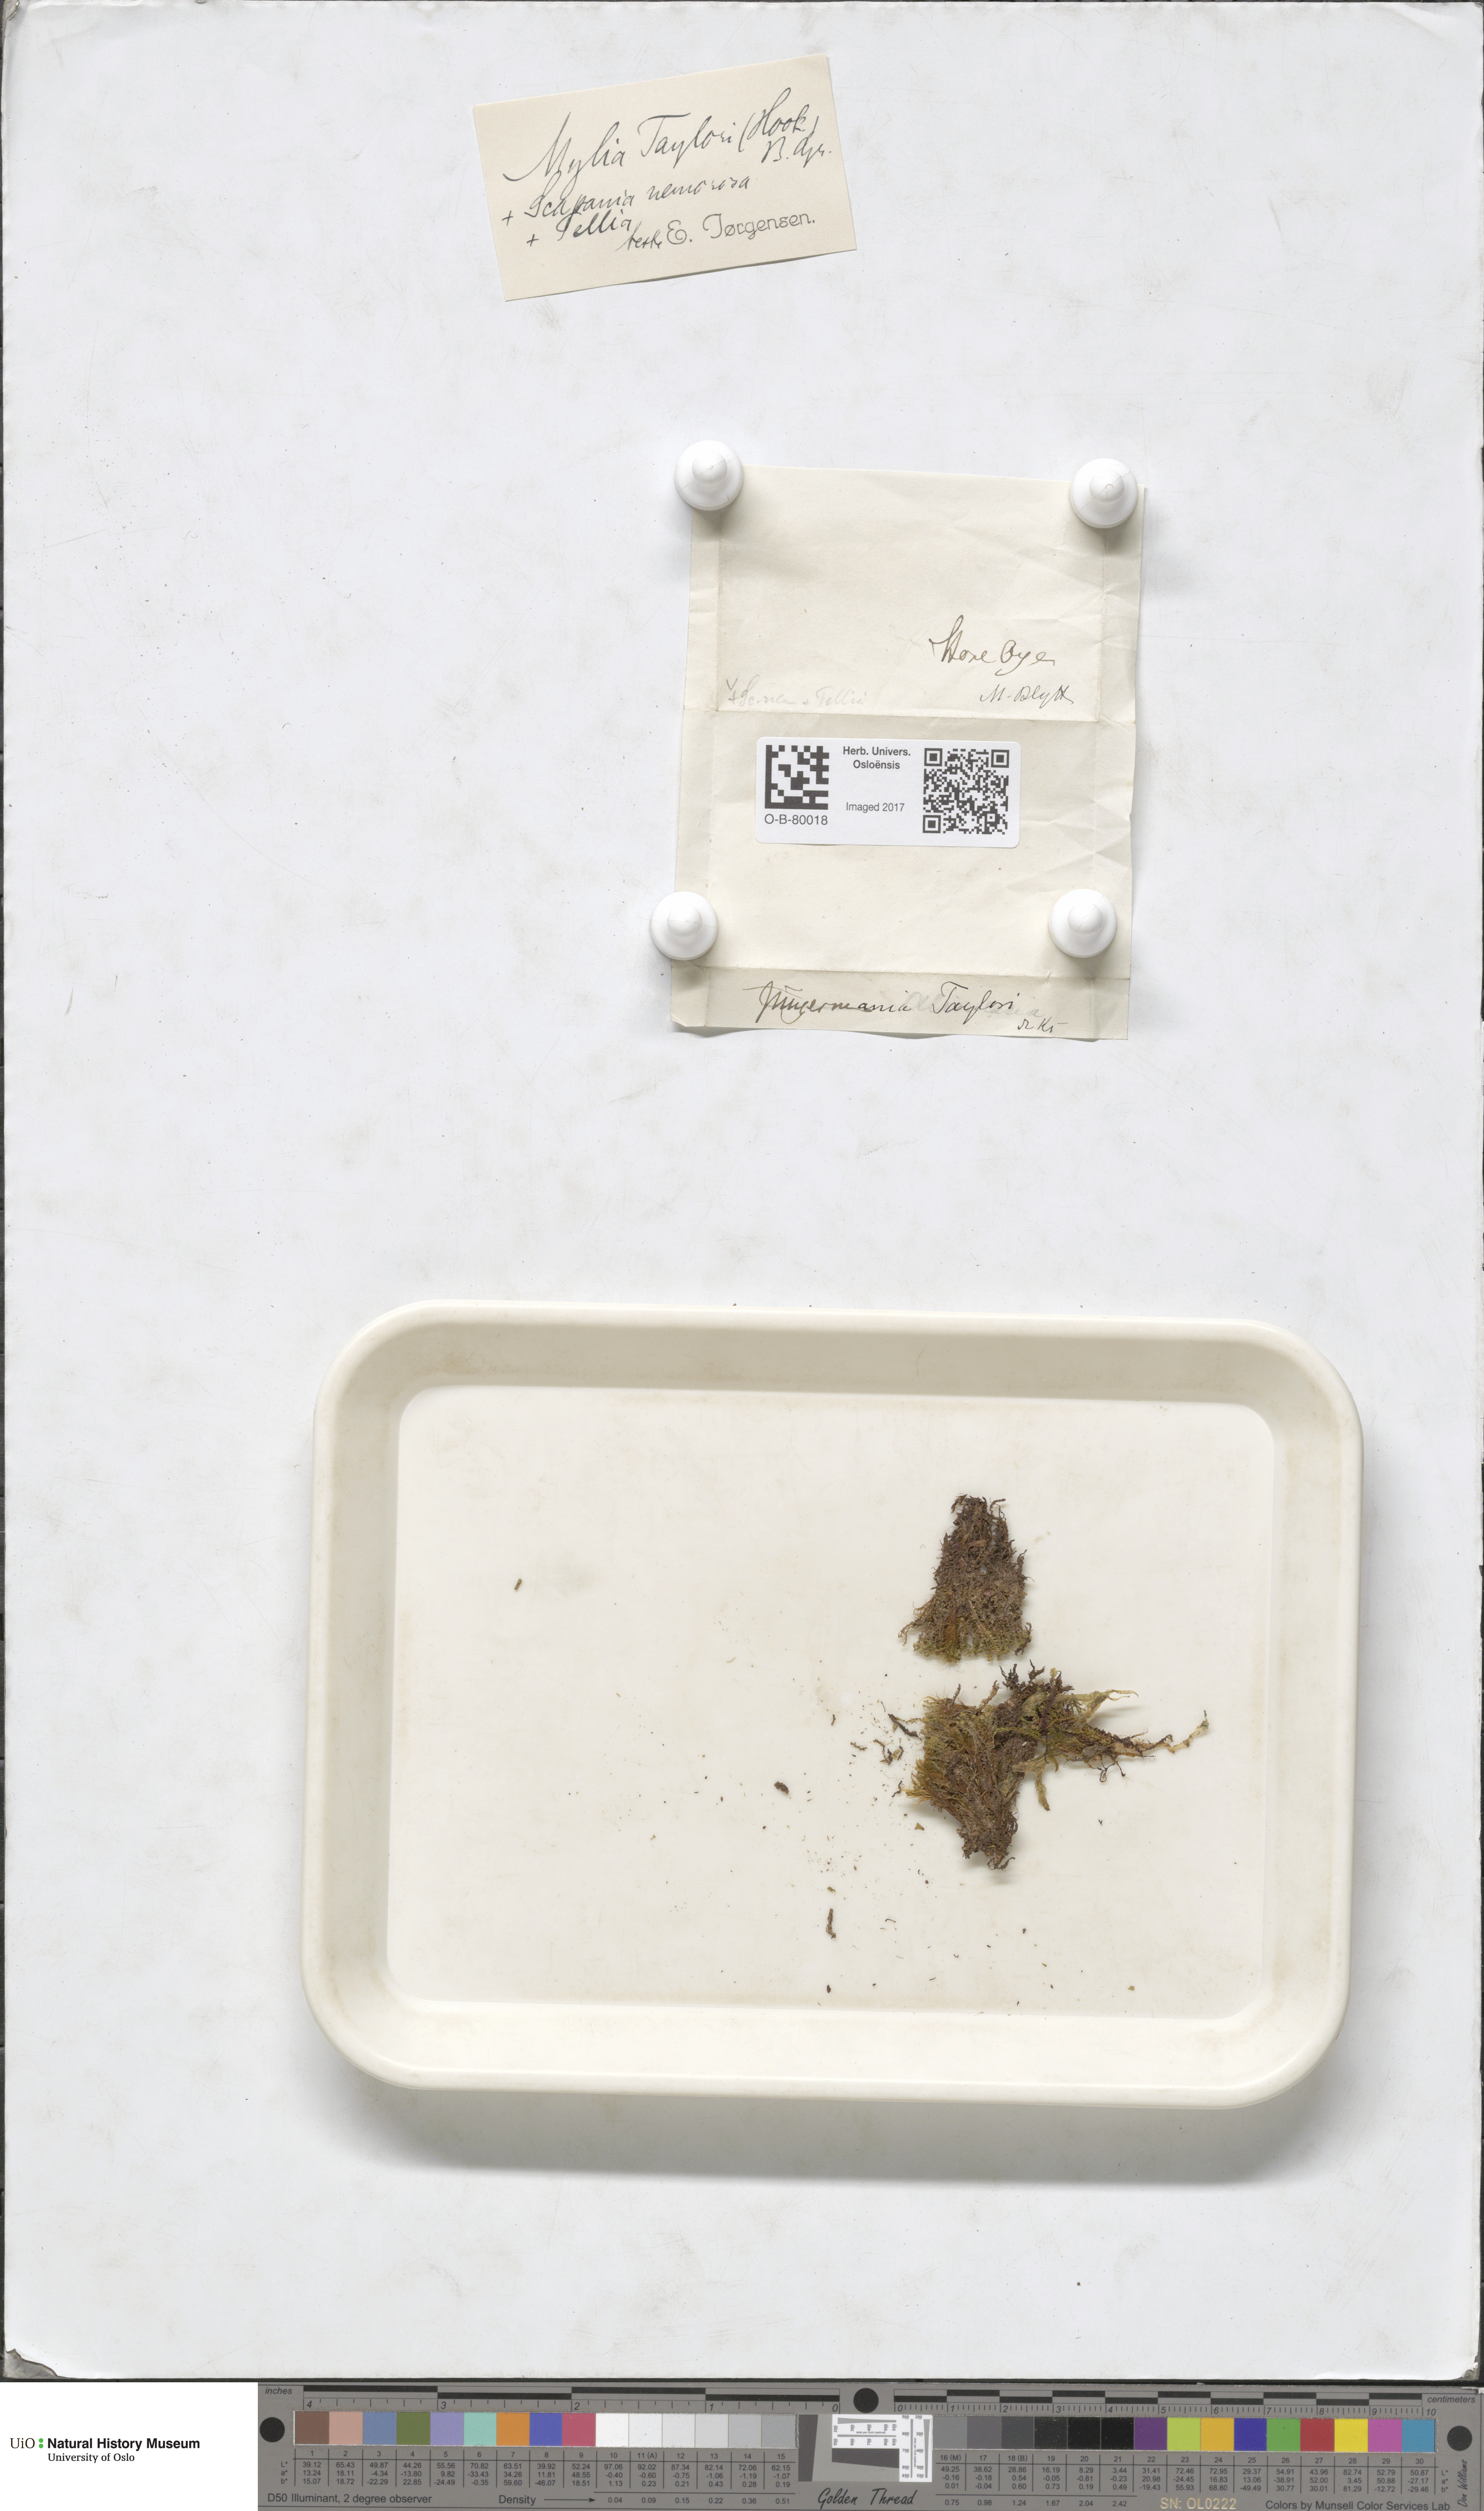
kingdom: Plantae
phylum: Marchantiophyta
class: Jungermanniopsida
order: Jungermanniales
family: Myliaceae
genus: Mylia
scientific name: Mylia taylorii
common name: Taylor s flapwort
